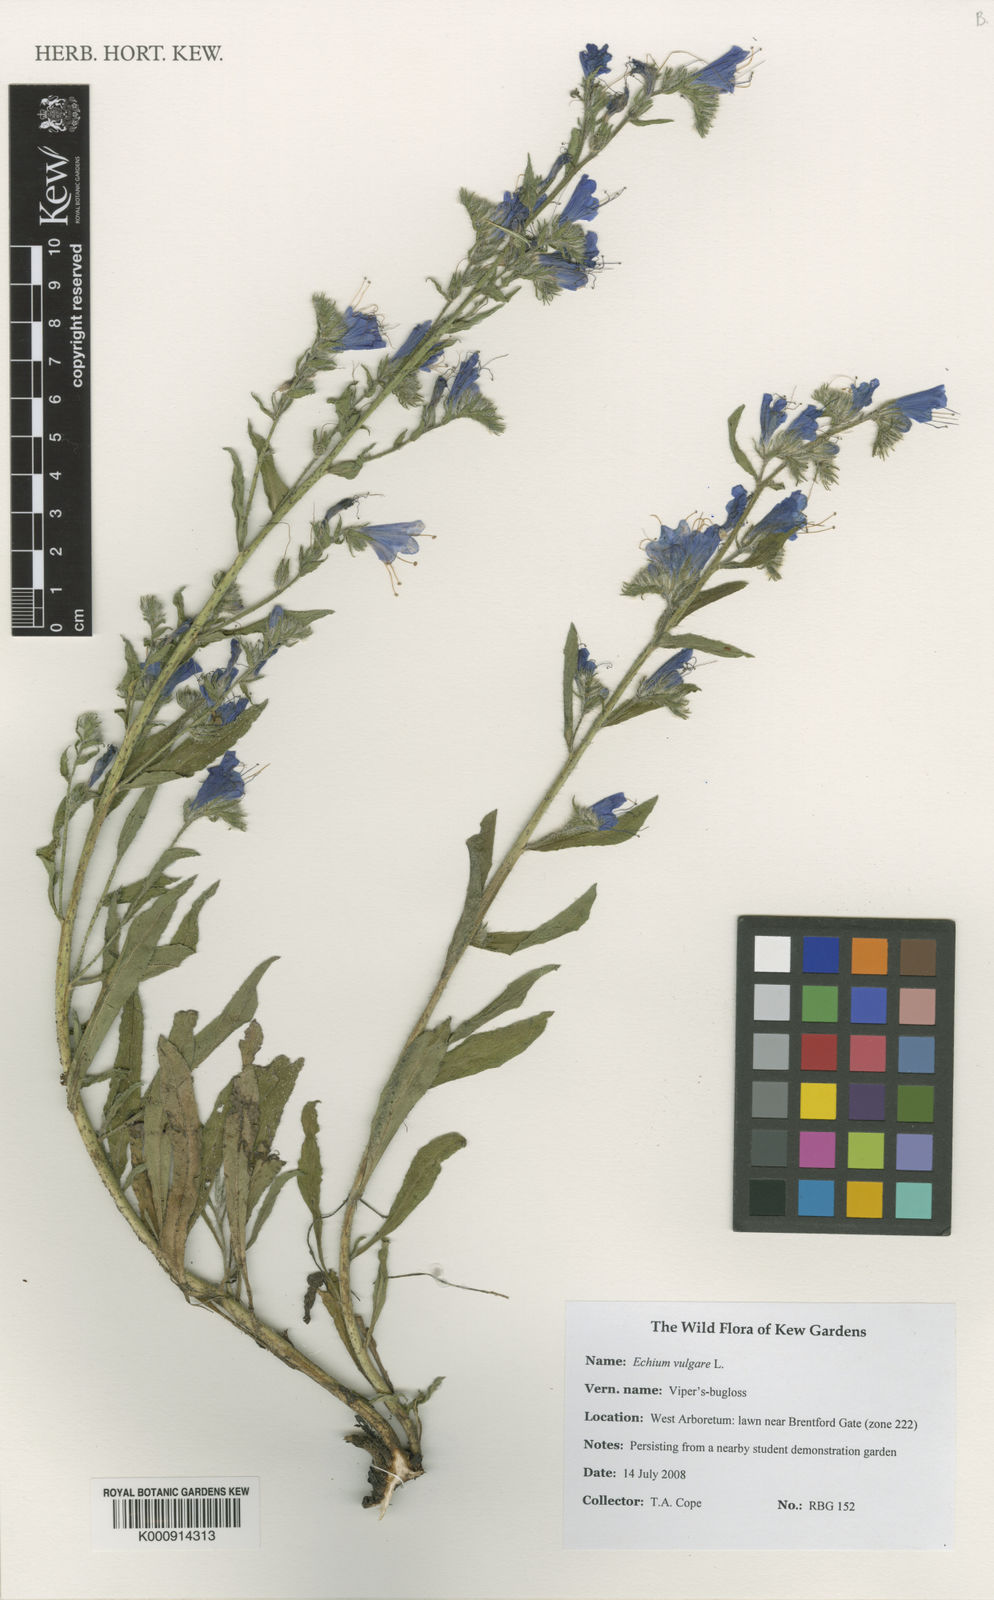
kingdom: Plantae
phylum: Tracheophyta
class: Magnoliopsida
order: Boraginales
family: Boraginaceae
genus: Echium
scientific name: Echium vulgare
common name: Common viper's bugloss
